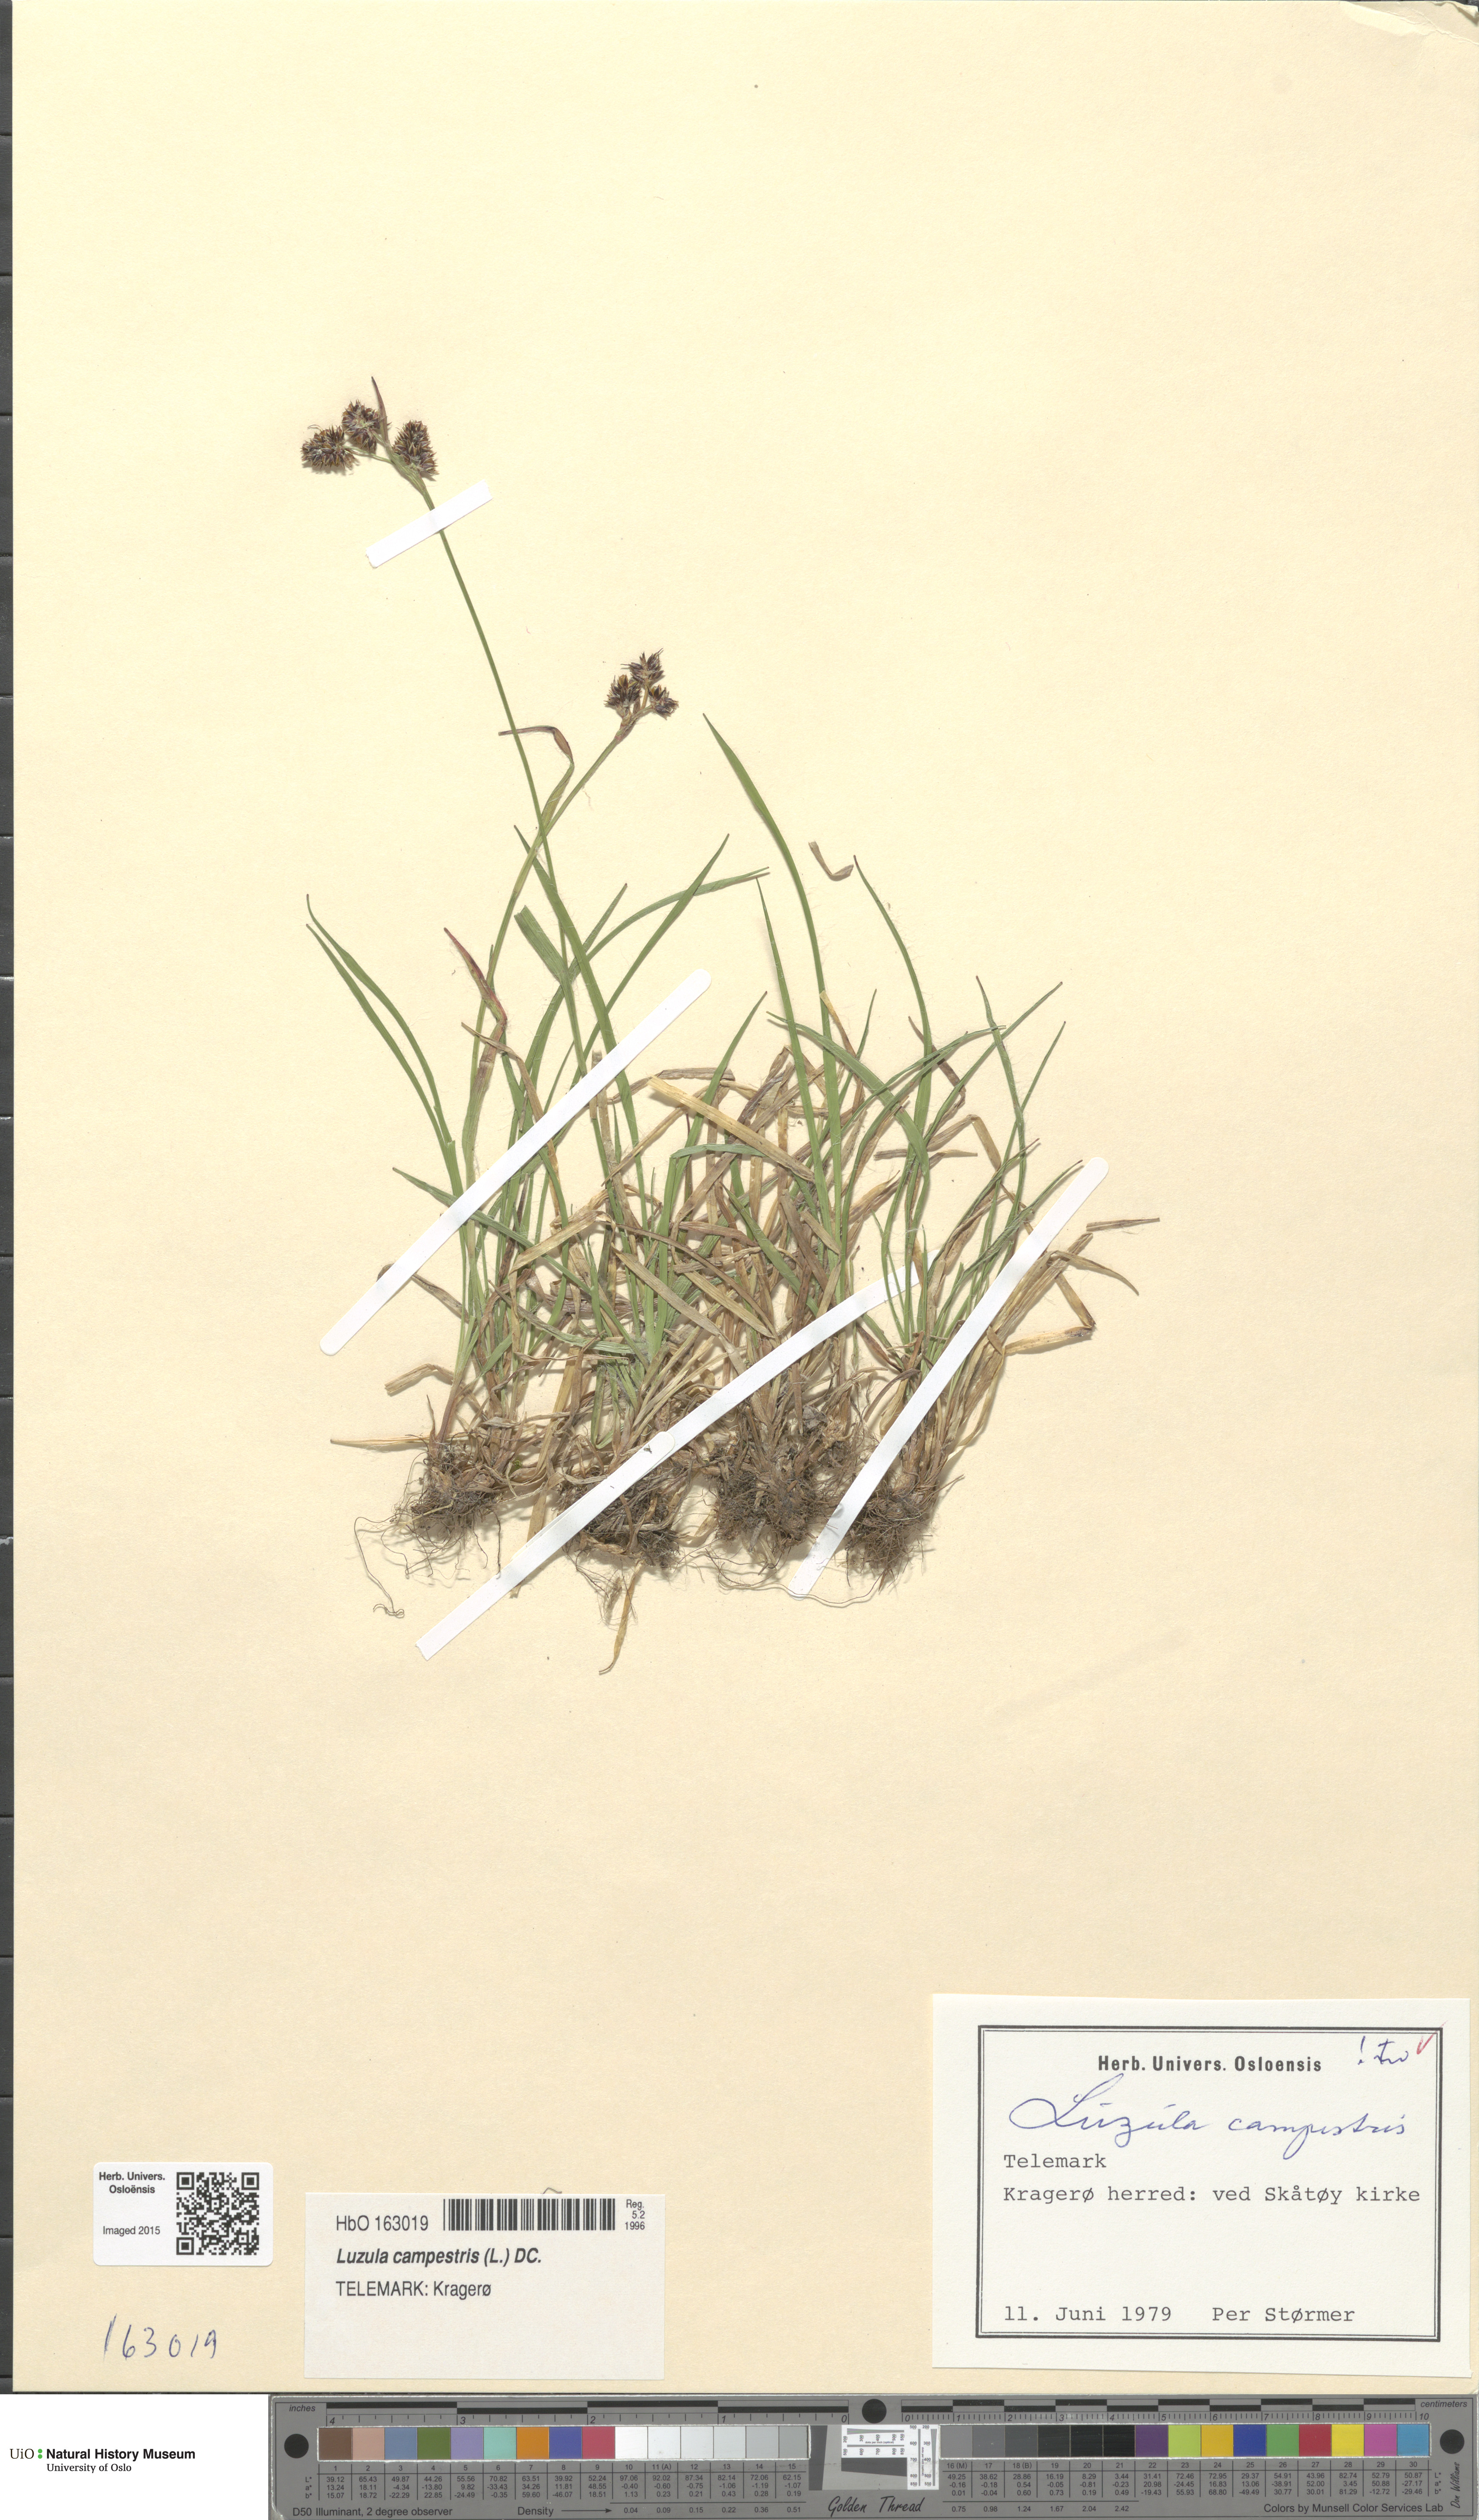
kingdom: Plantae
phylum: Tracheophyta
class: Liliopsida
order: Poales
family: Juncaceae
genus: Luzula
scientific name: Luzula campestris
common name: Field wood-rush
